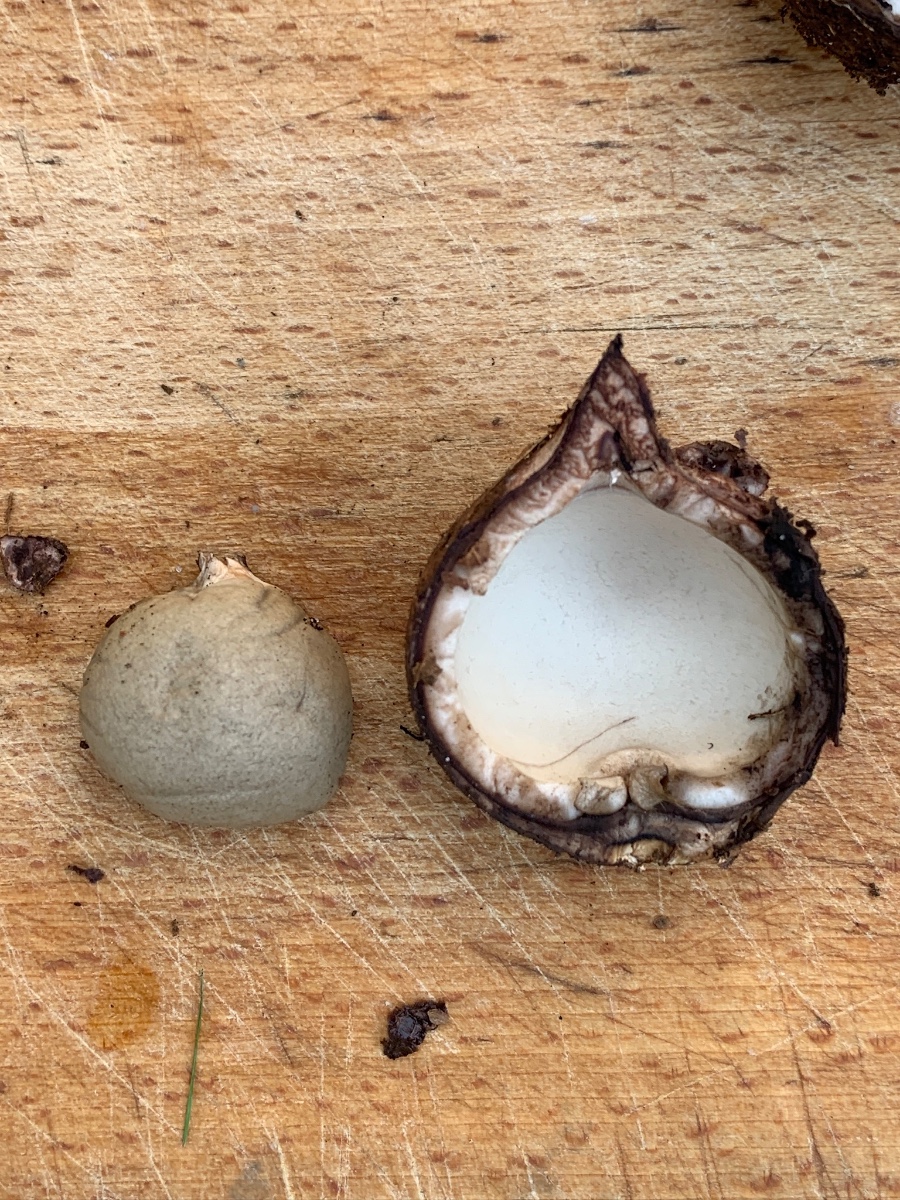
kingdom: Fungi
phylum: Basidiomycota
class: Agaricomycetes
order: Geastrales
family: Geastraceae
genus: Geastrum
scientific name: Geastrum michelianum
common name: kødet stjernebold
